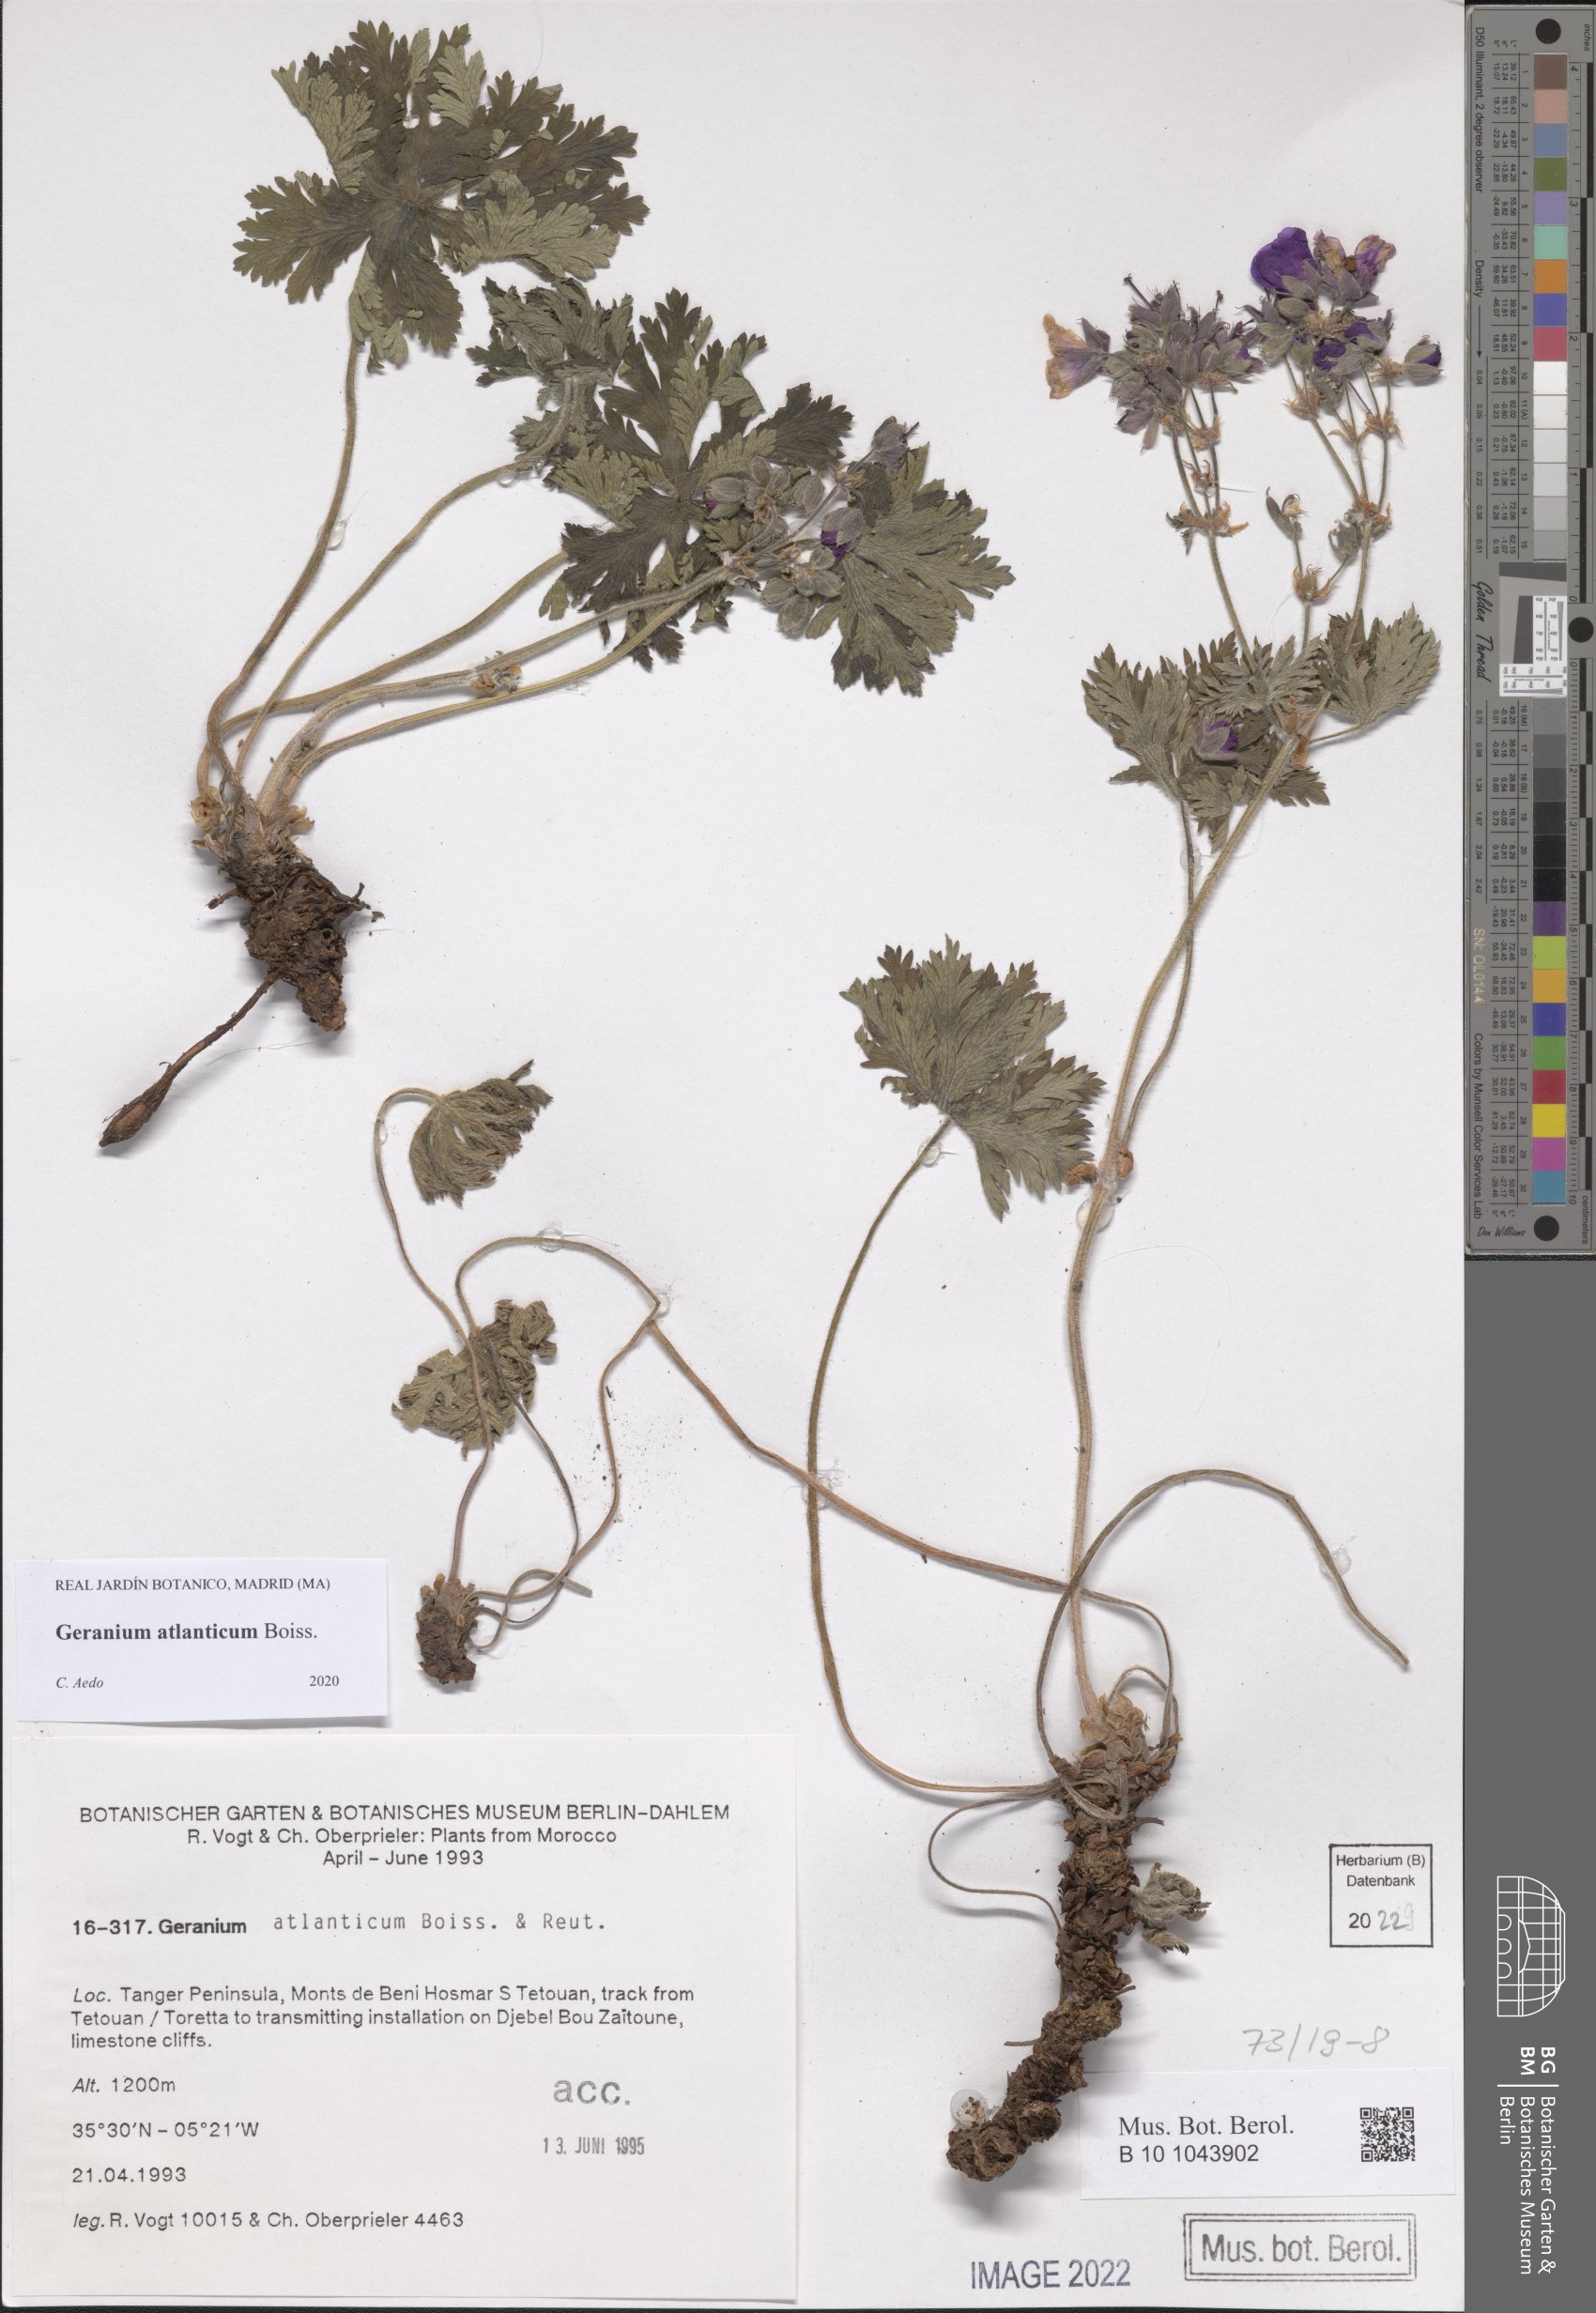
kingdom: Plantae
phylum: Tracheophyta
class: Magnoliopsida
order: Geraniales
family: Geraniaceae
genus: Geranium
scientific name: Geranium atlanticum
